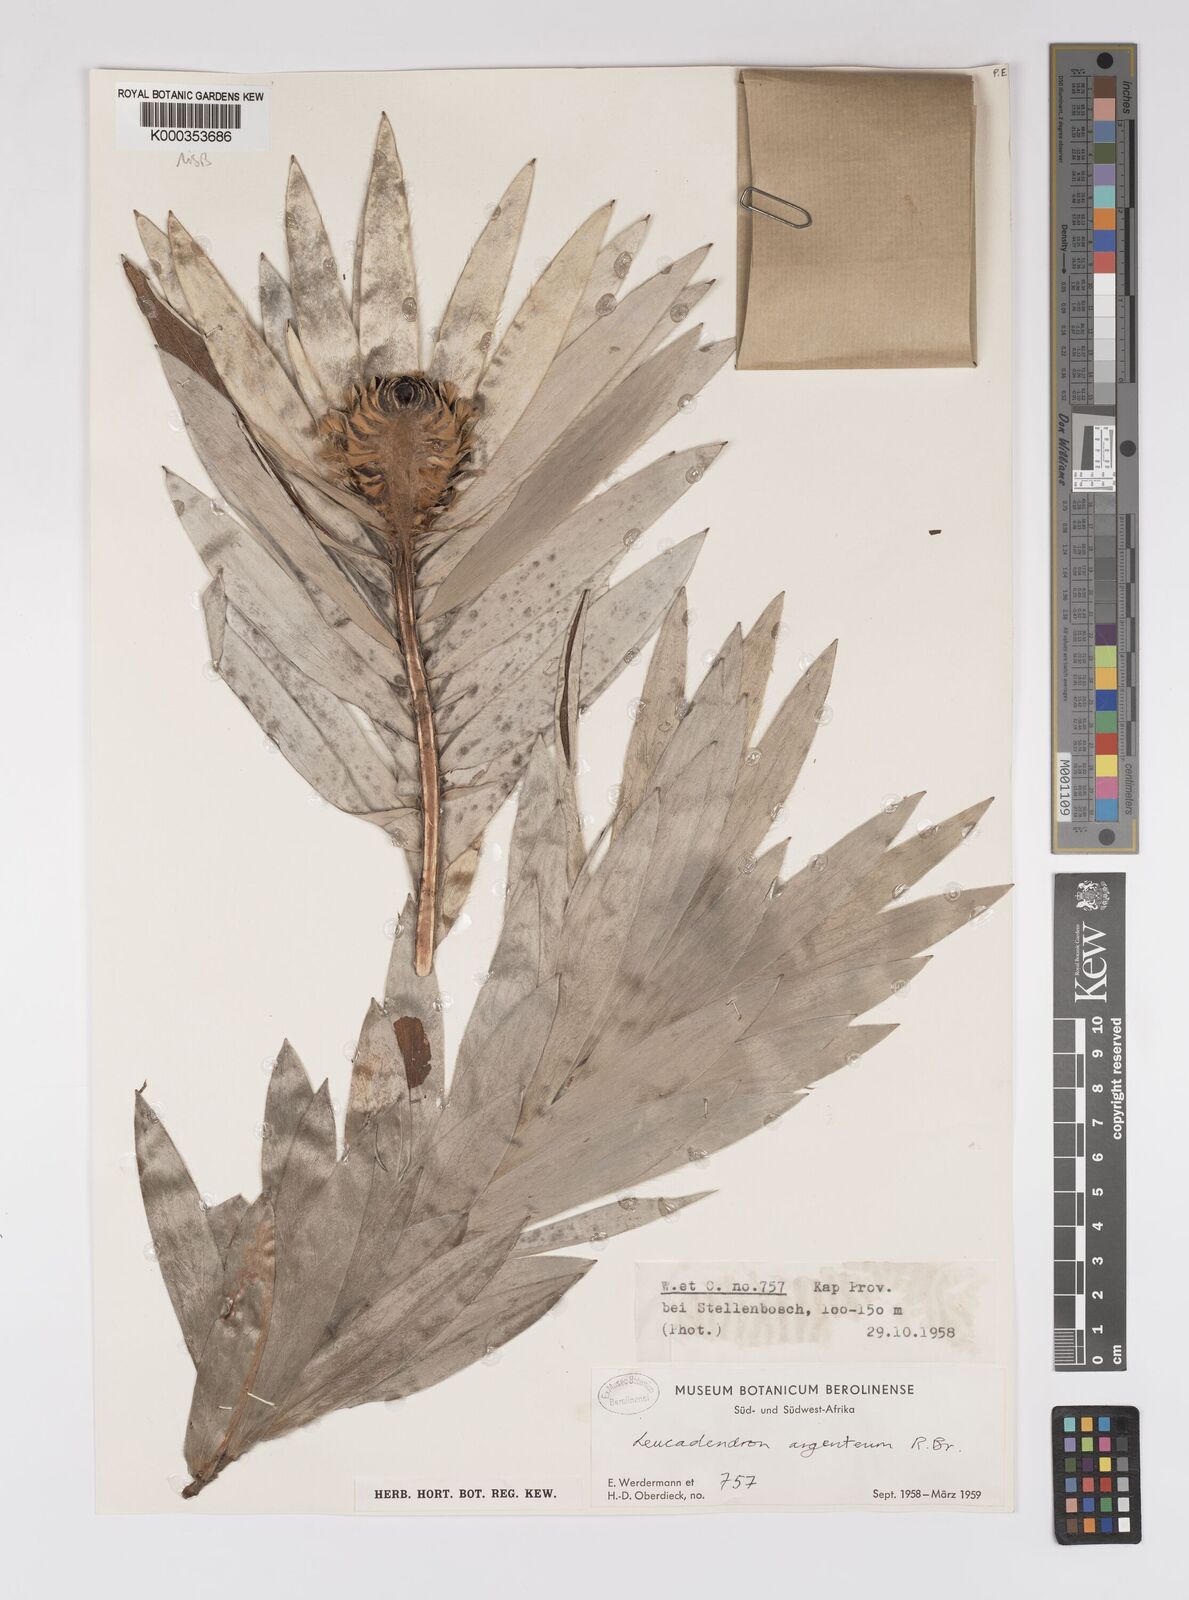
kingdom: Plantae
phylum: Tracheophyta
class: Magnoliopsida
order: Proteales
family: Proteaceae
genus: Leucadendron
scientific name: Leucadendron argenteum
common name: Cape silver tree
